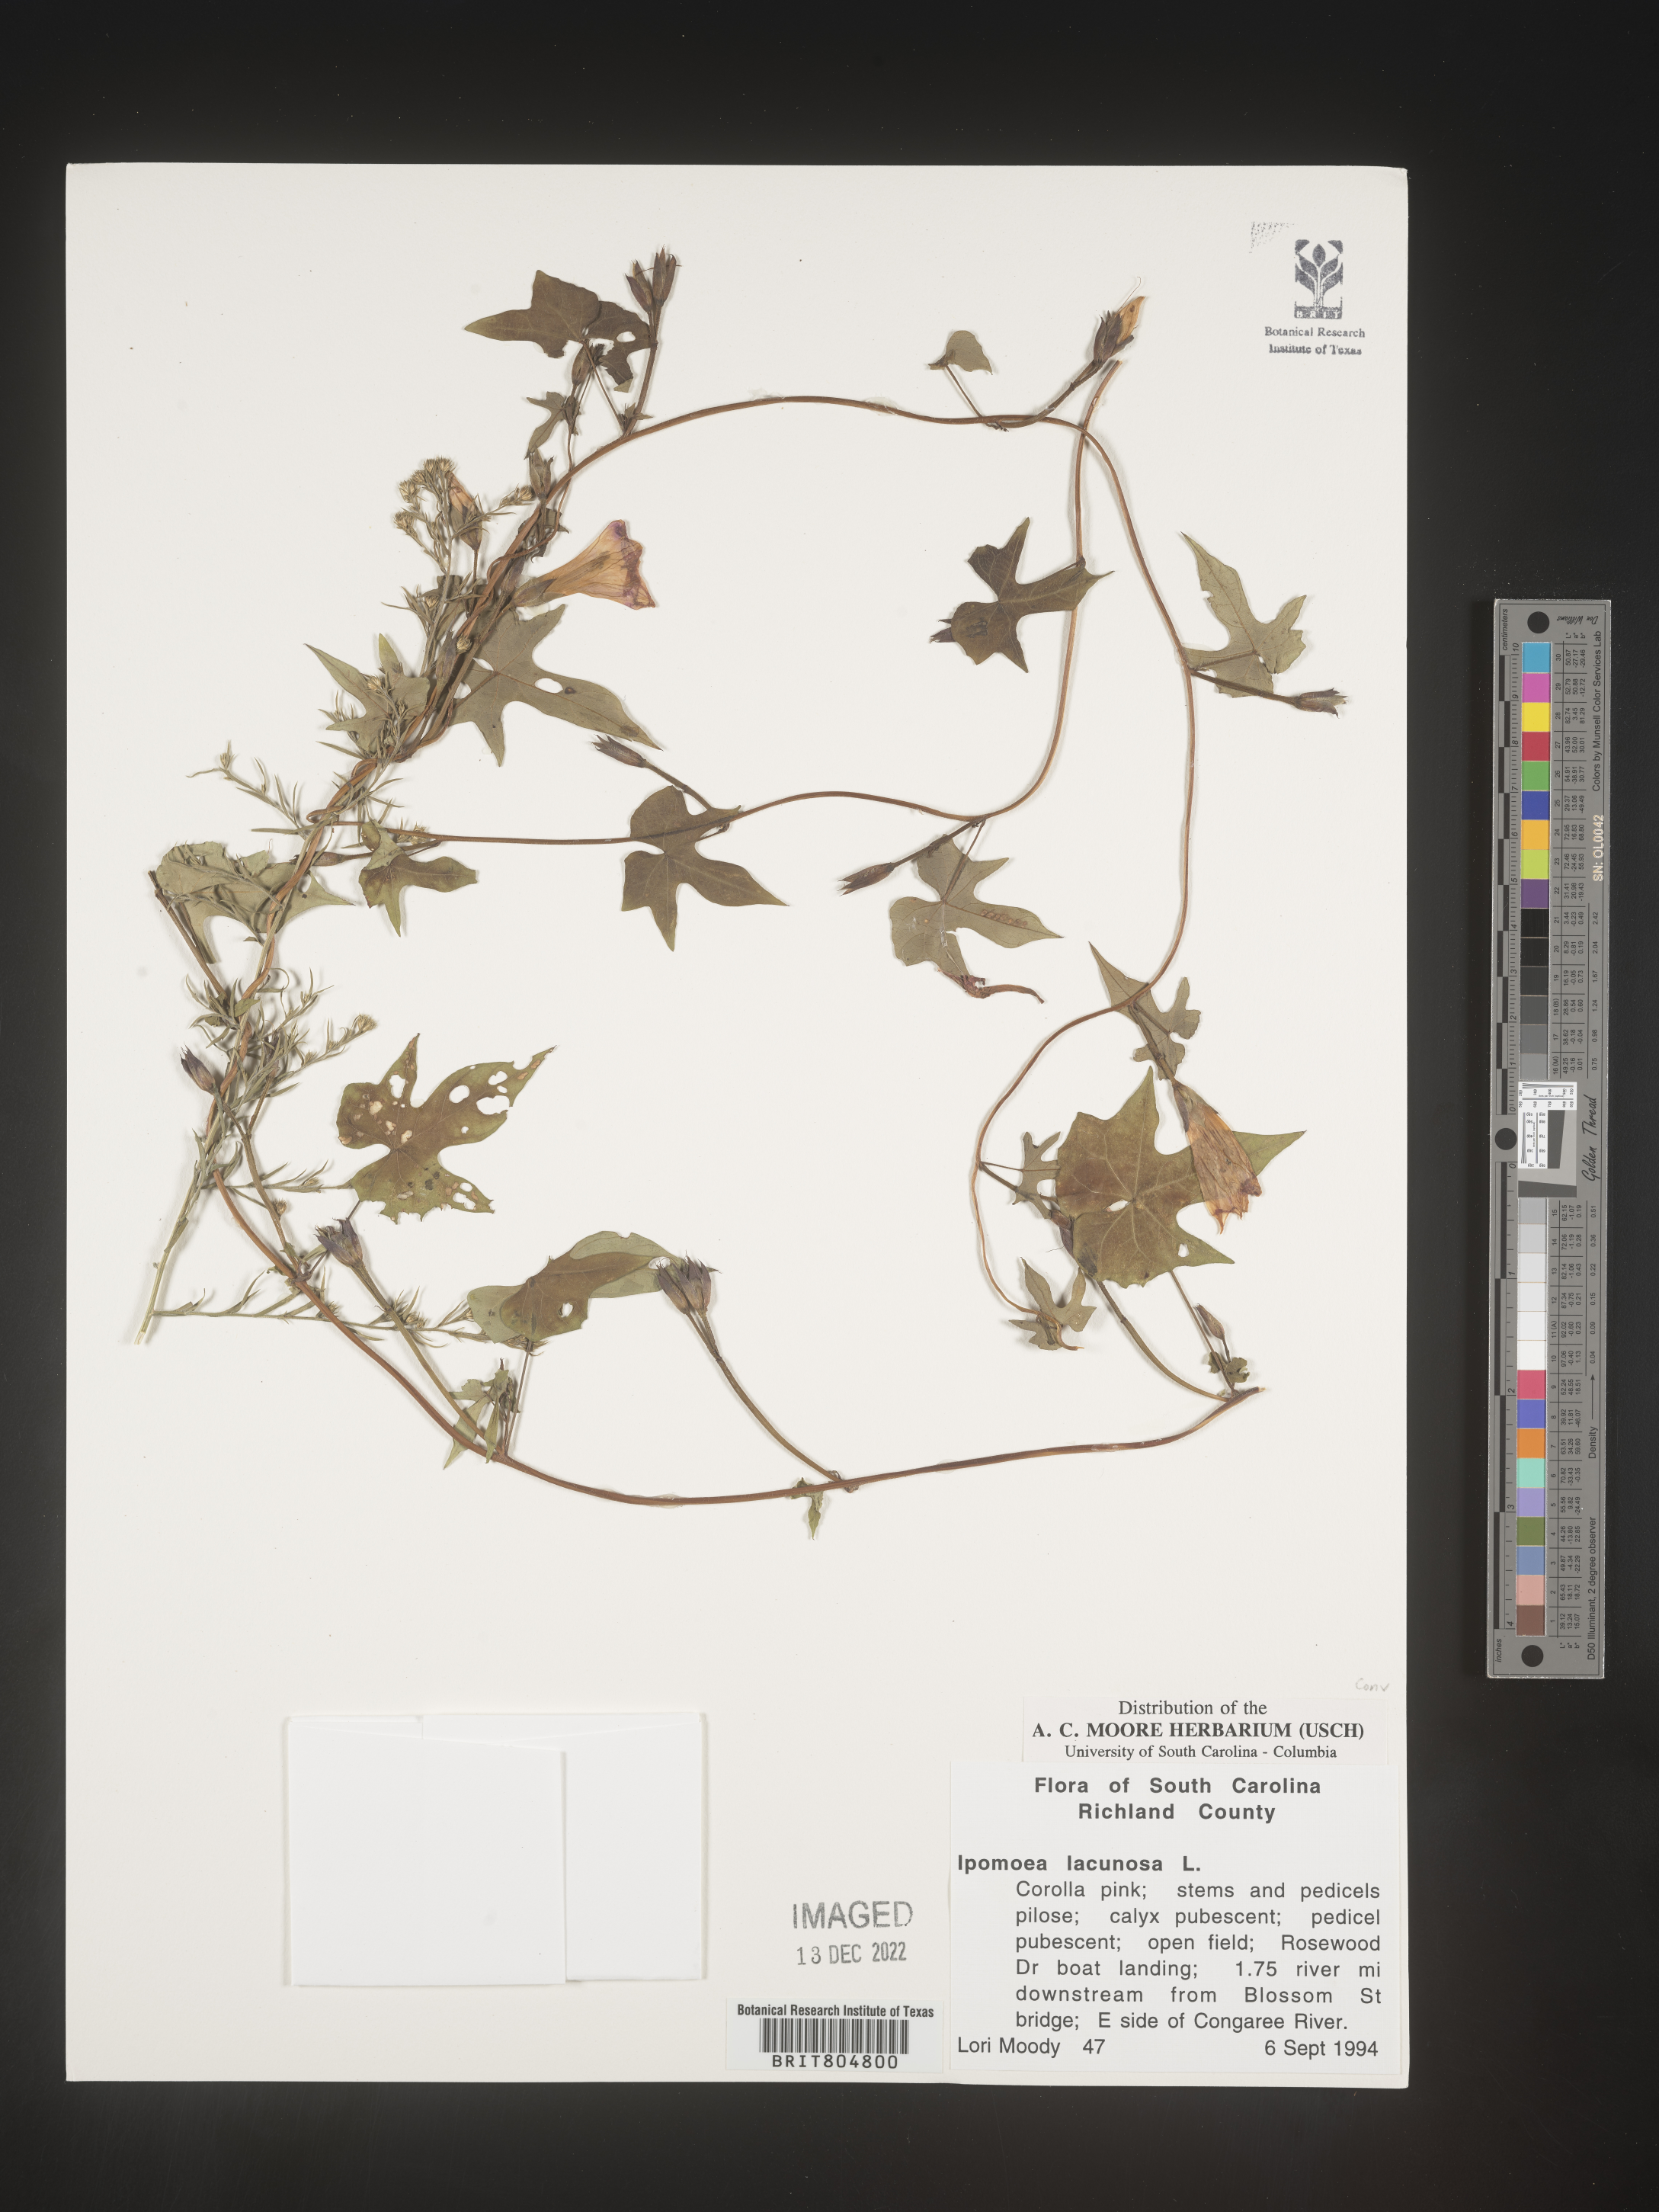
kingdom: Plantae
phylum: Tracheophyta
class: Magnoliopsida
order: Solanales
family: Convolvulaceae
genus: Ipomoea
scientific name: Ipomoea lacunosa
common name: White morning-glory
